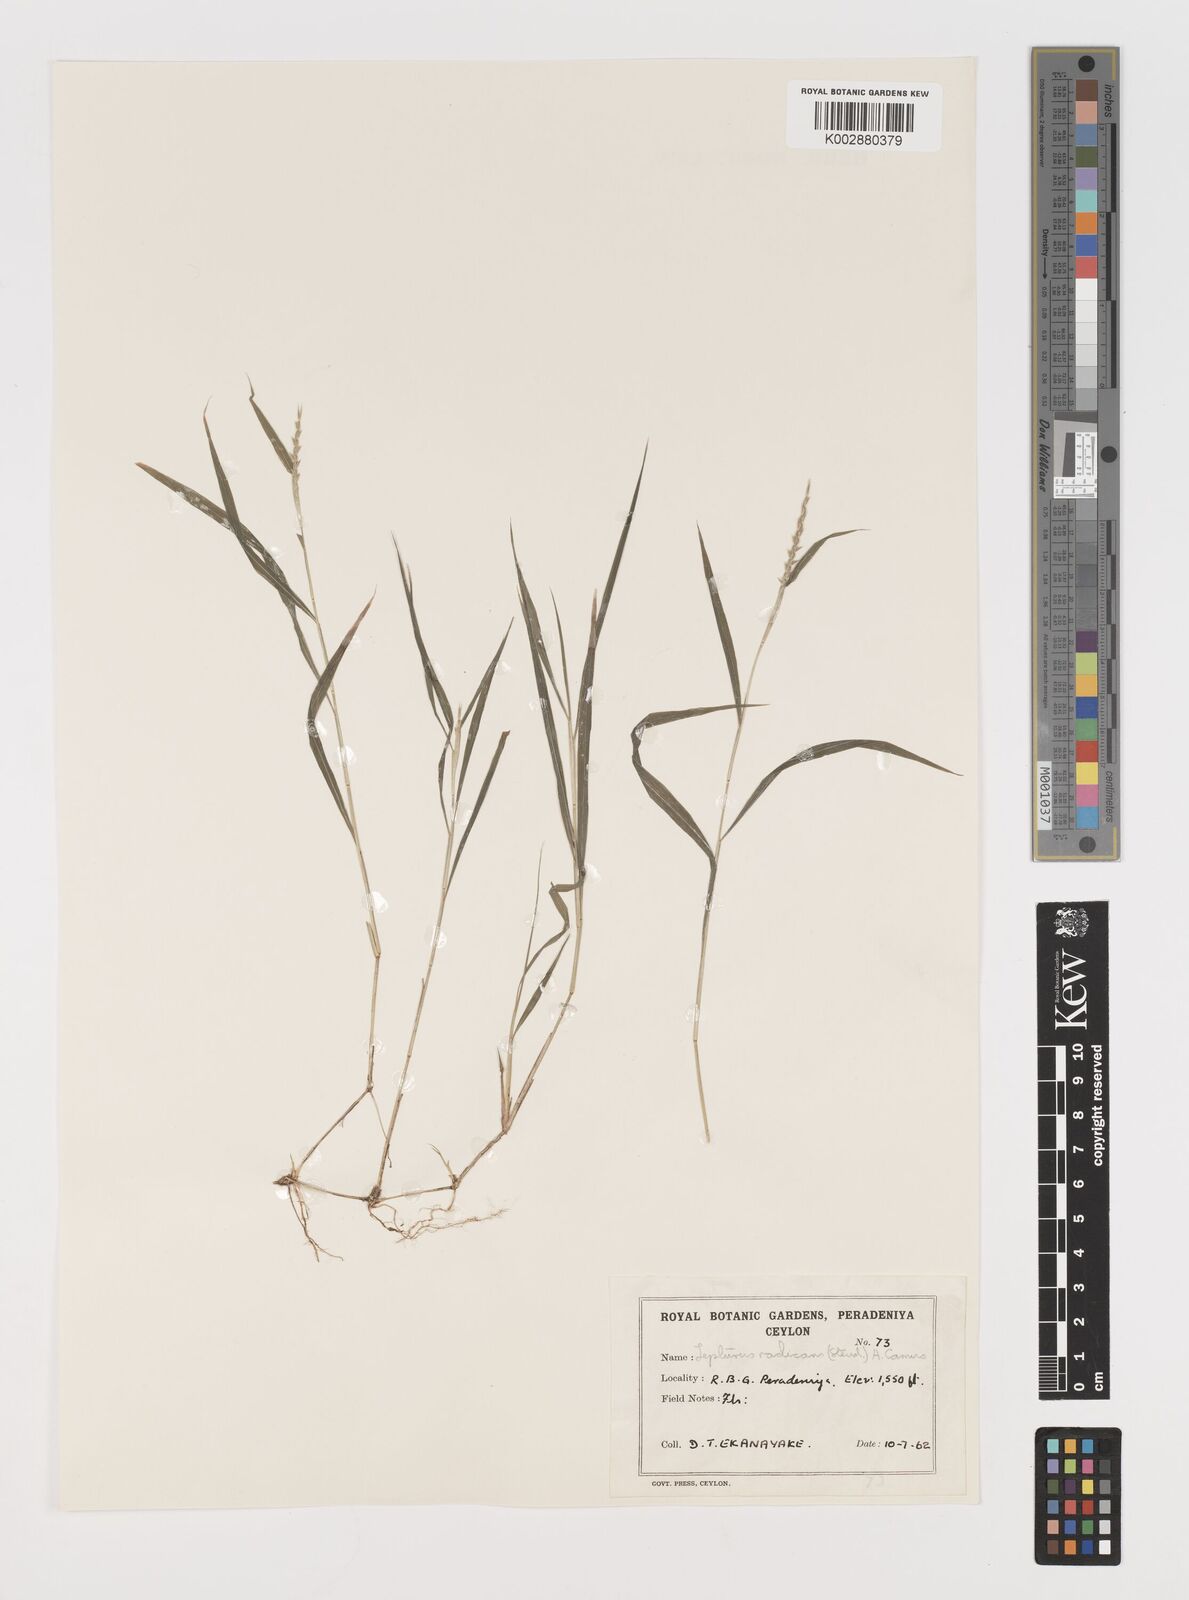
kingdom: Plantae
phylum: Tracheophyta
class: Liliopsida
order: Poales
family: Poaceae
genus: Lepturus
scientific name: Lepturus radicans
